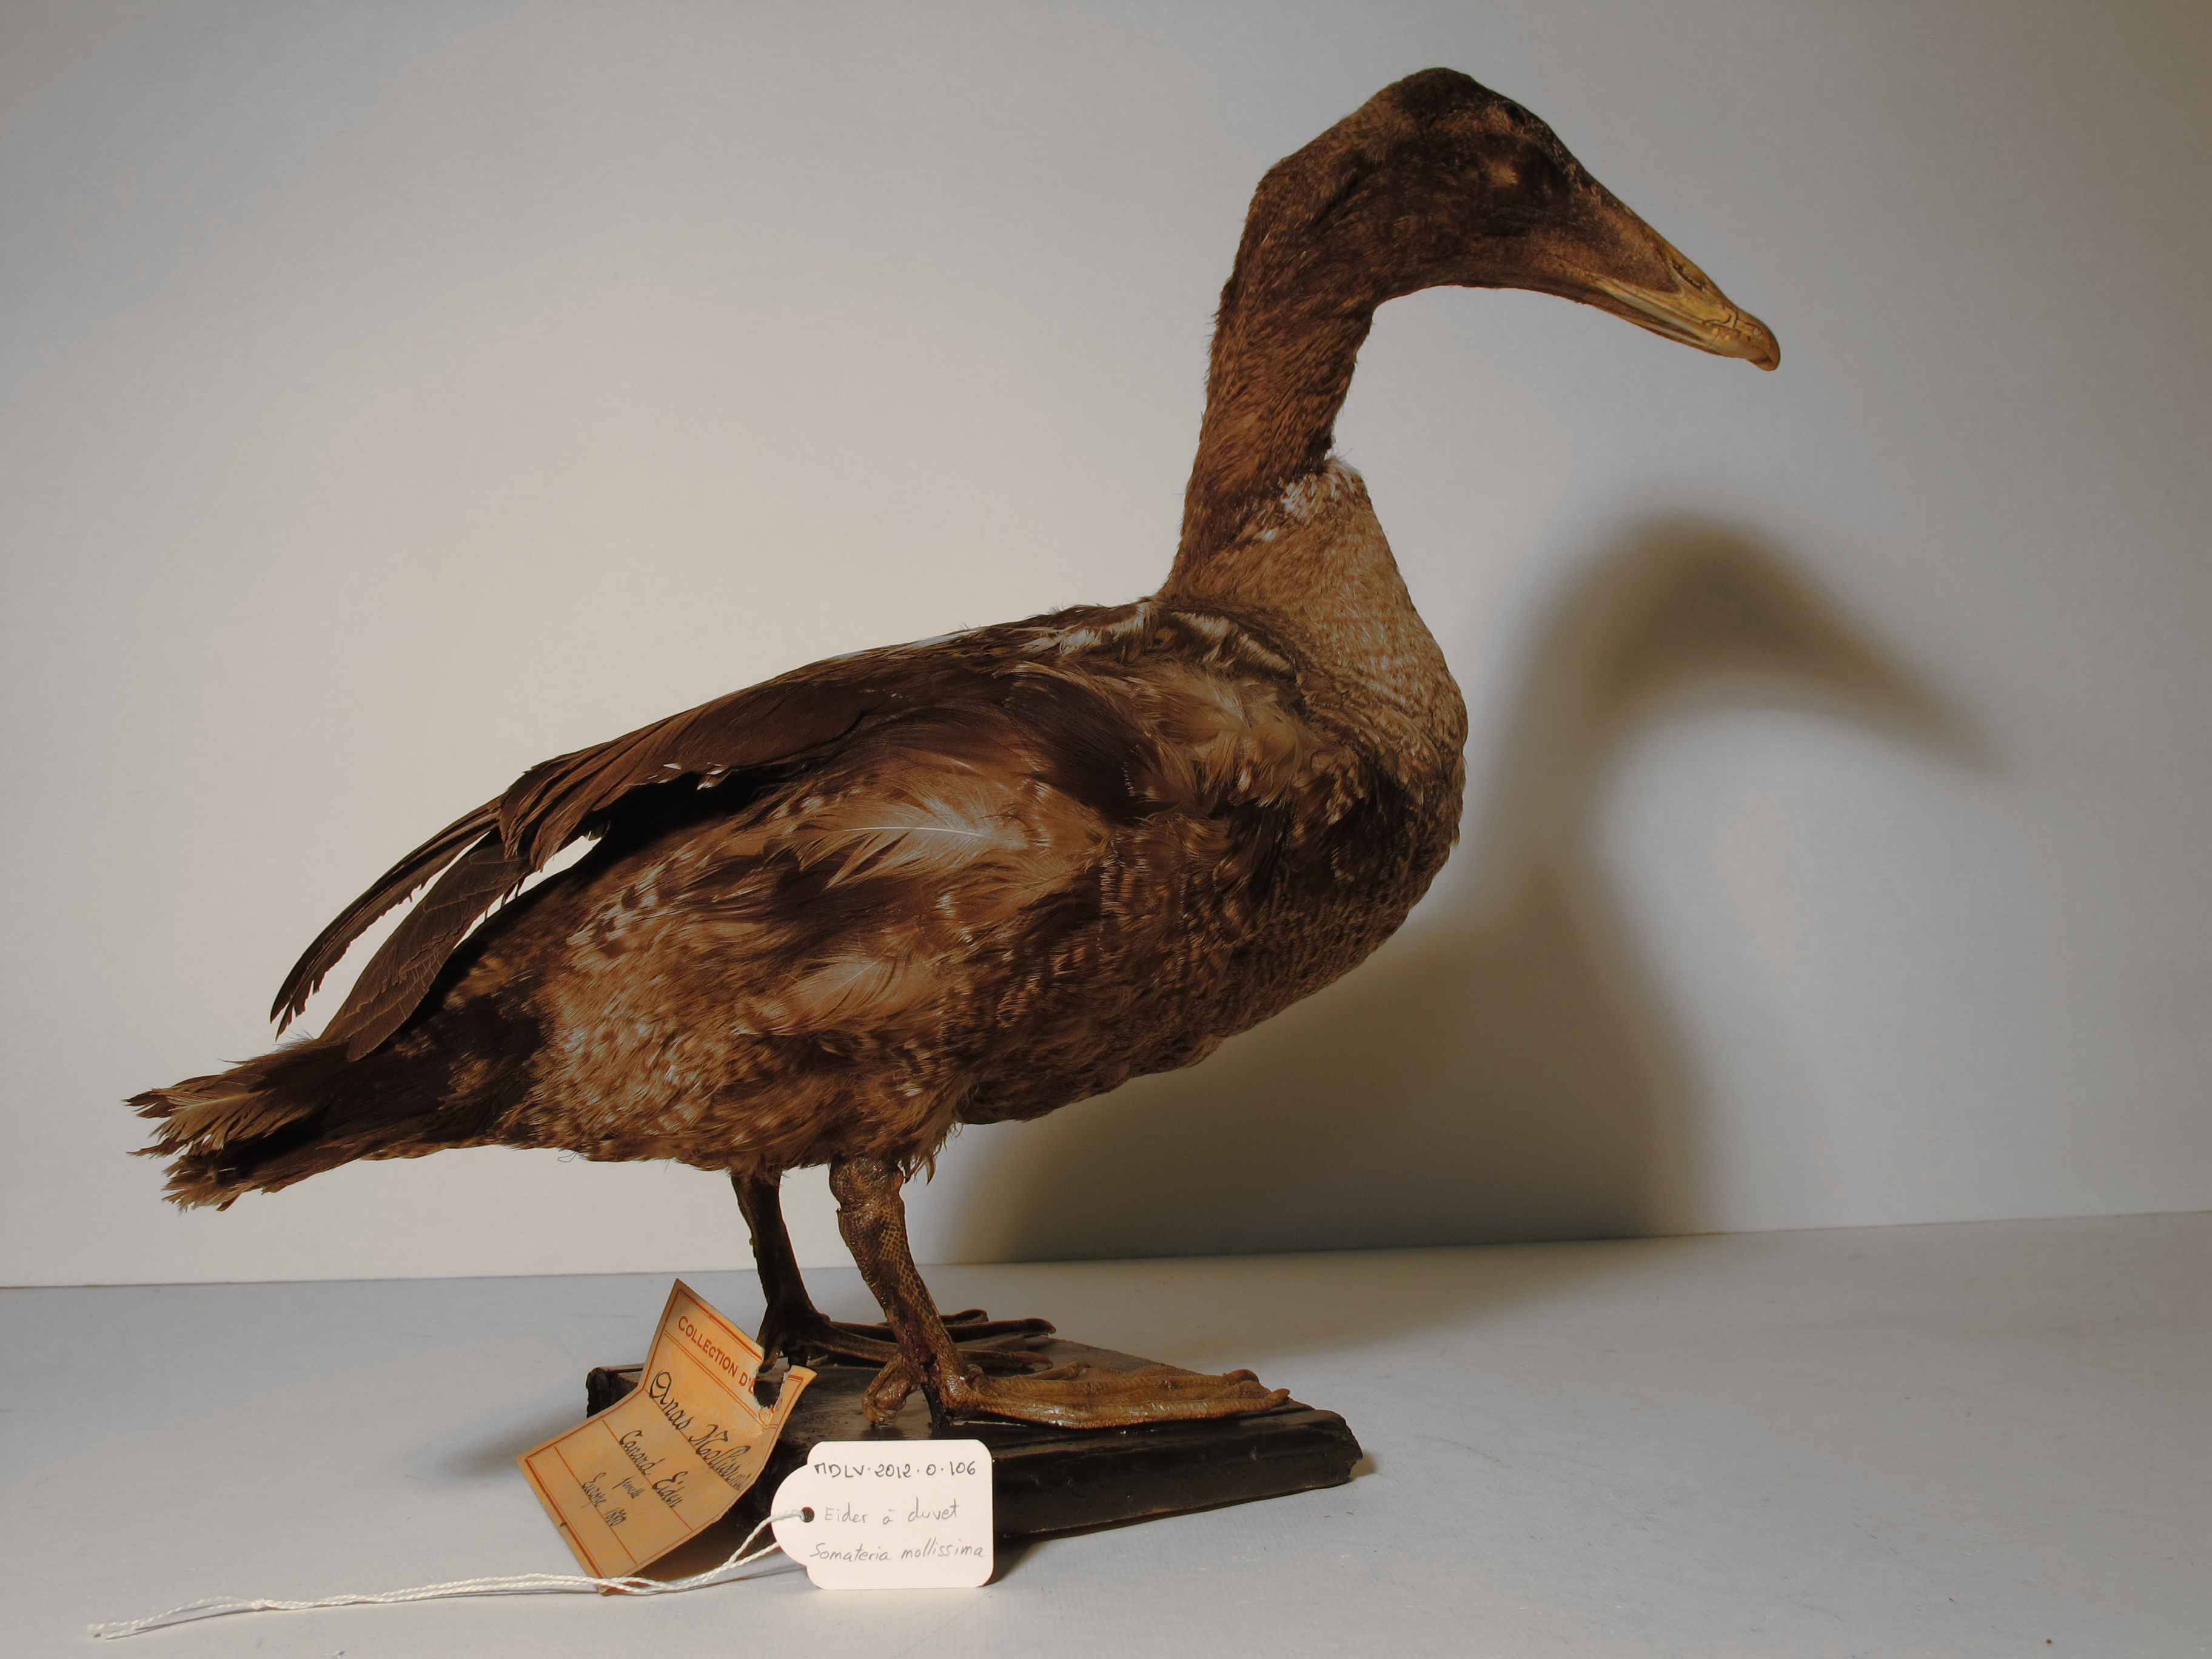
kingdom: Animalia
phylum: Chordata
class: Aves
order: Anseriformes
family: Anatidae
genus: Somateria
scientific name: Somateria mollissima
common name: Common Eider
